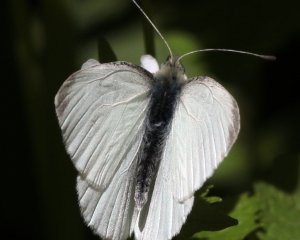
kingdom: Animalia
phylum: Arthropoda
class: Insecta
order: Lepidoptera
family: Pieridae
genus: Pieris
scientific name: Pieris rapae
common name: Cabbage White
